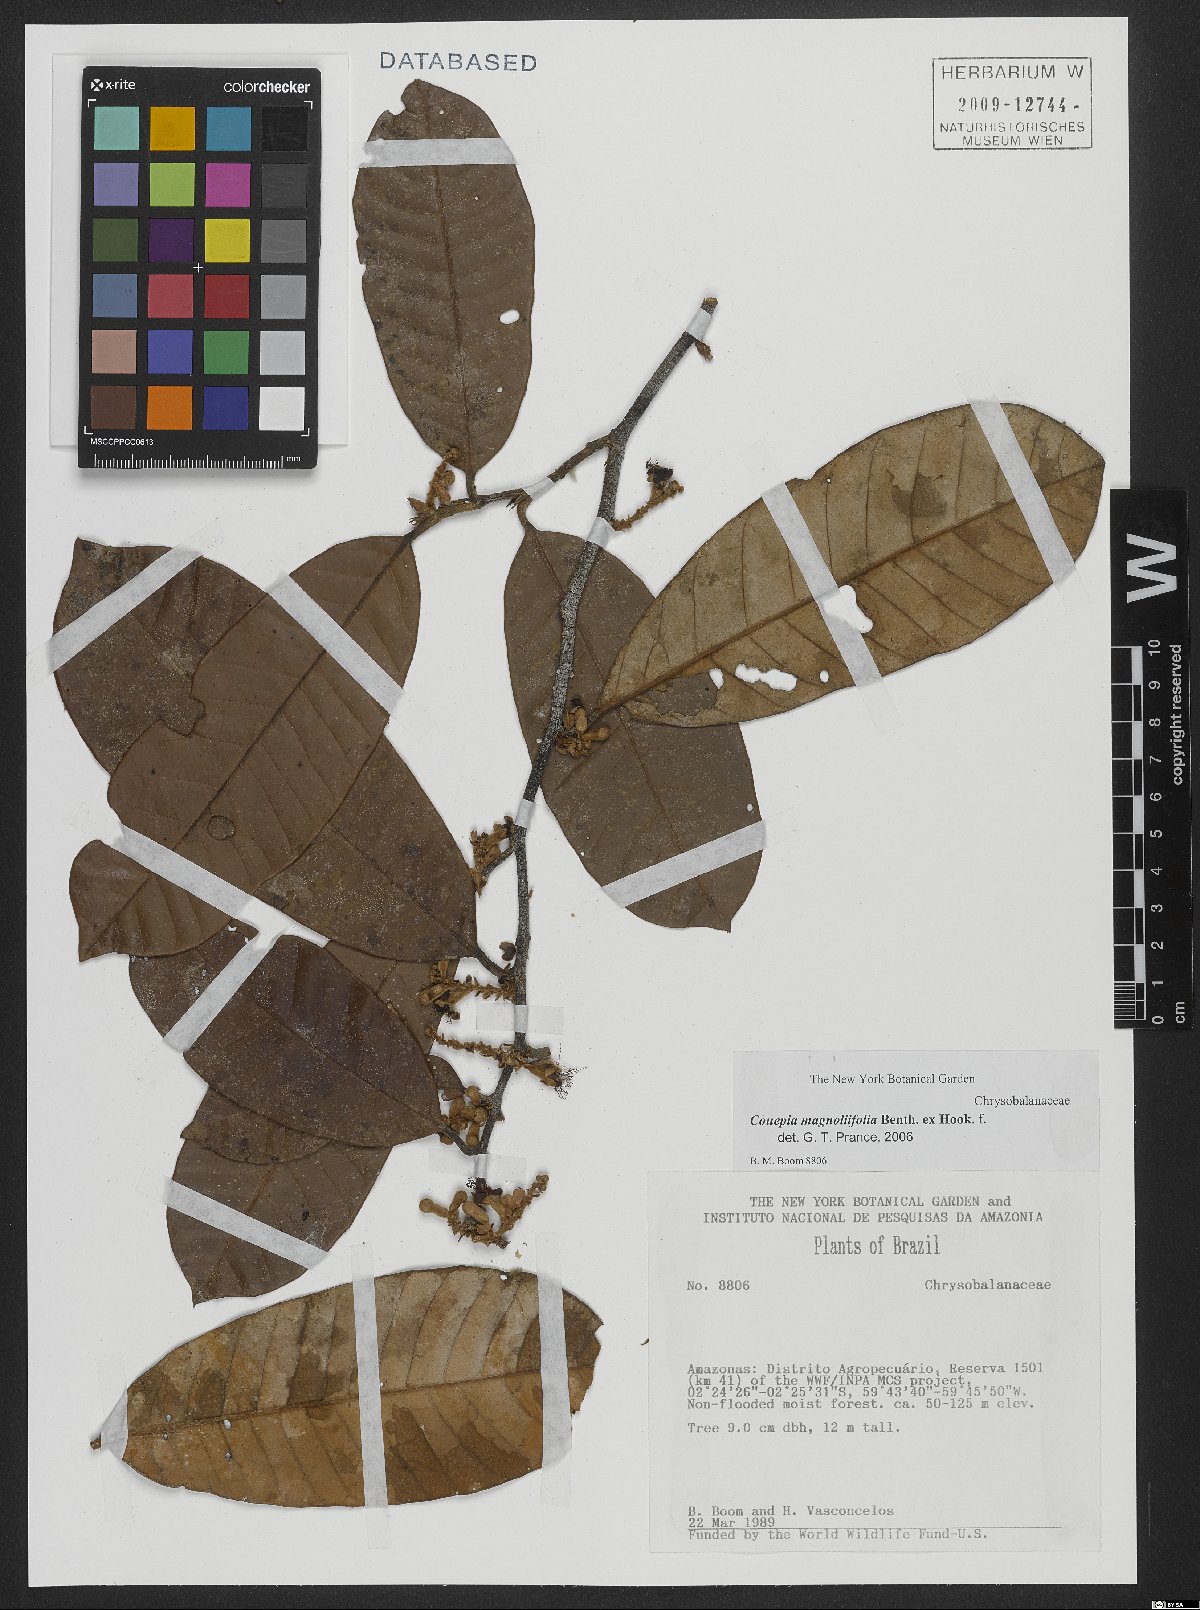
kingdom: Plantae
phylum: Tracheophyta
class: Magnoliopsida
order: Malpighiales
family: Chrysobalanaceae
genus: Couepia
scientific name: Couepia magnoliifolia
